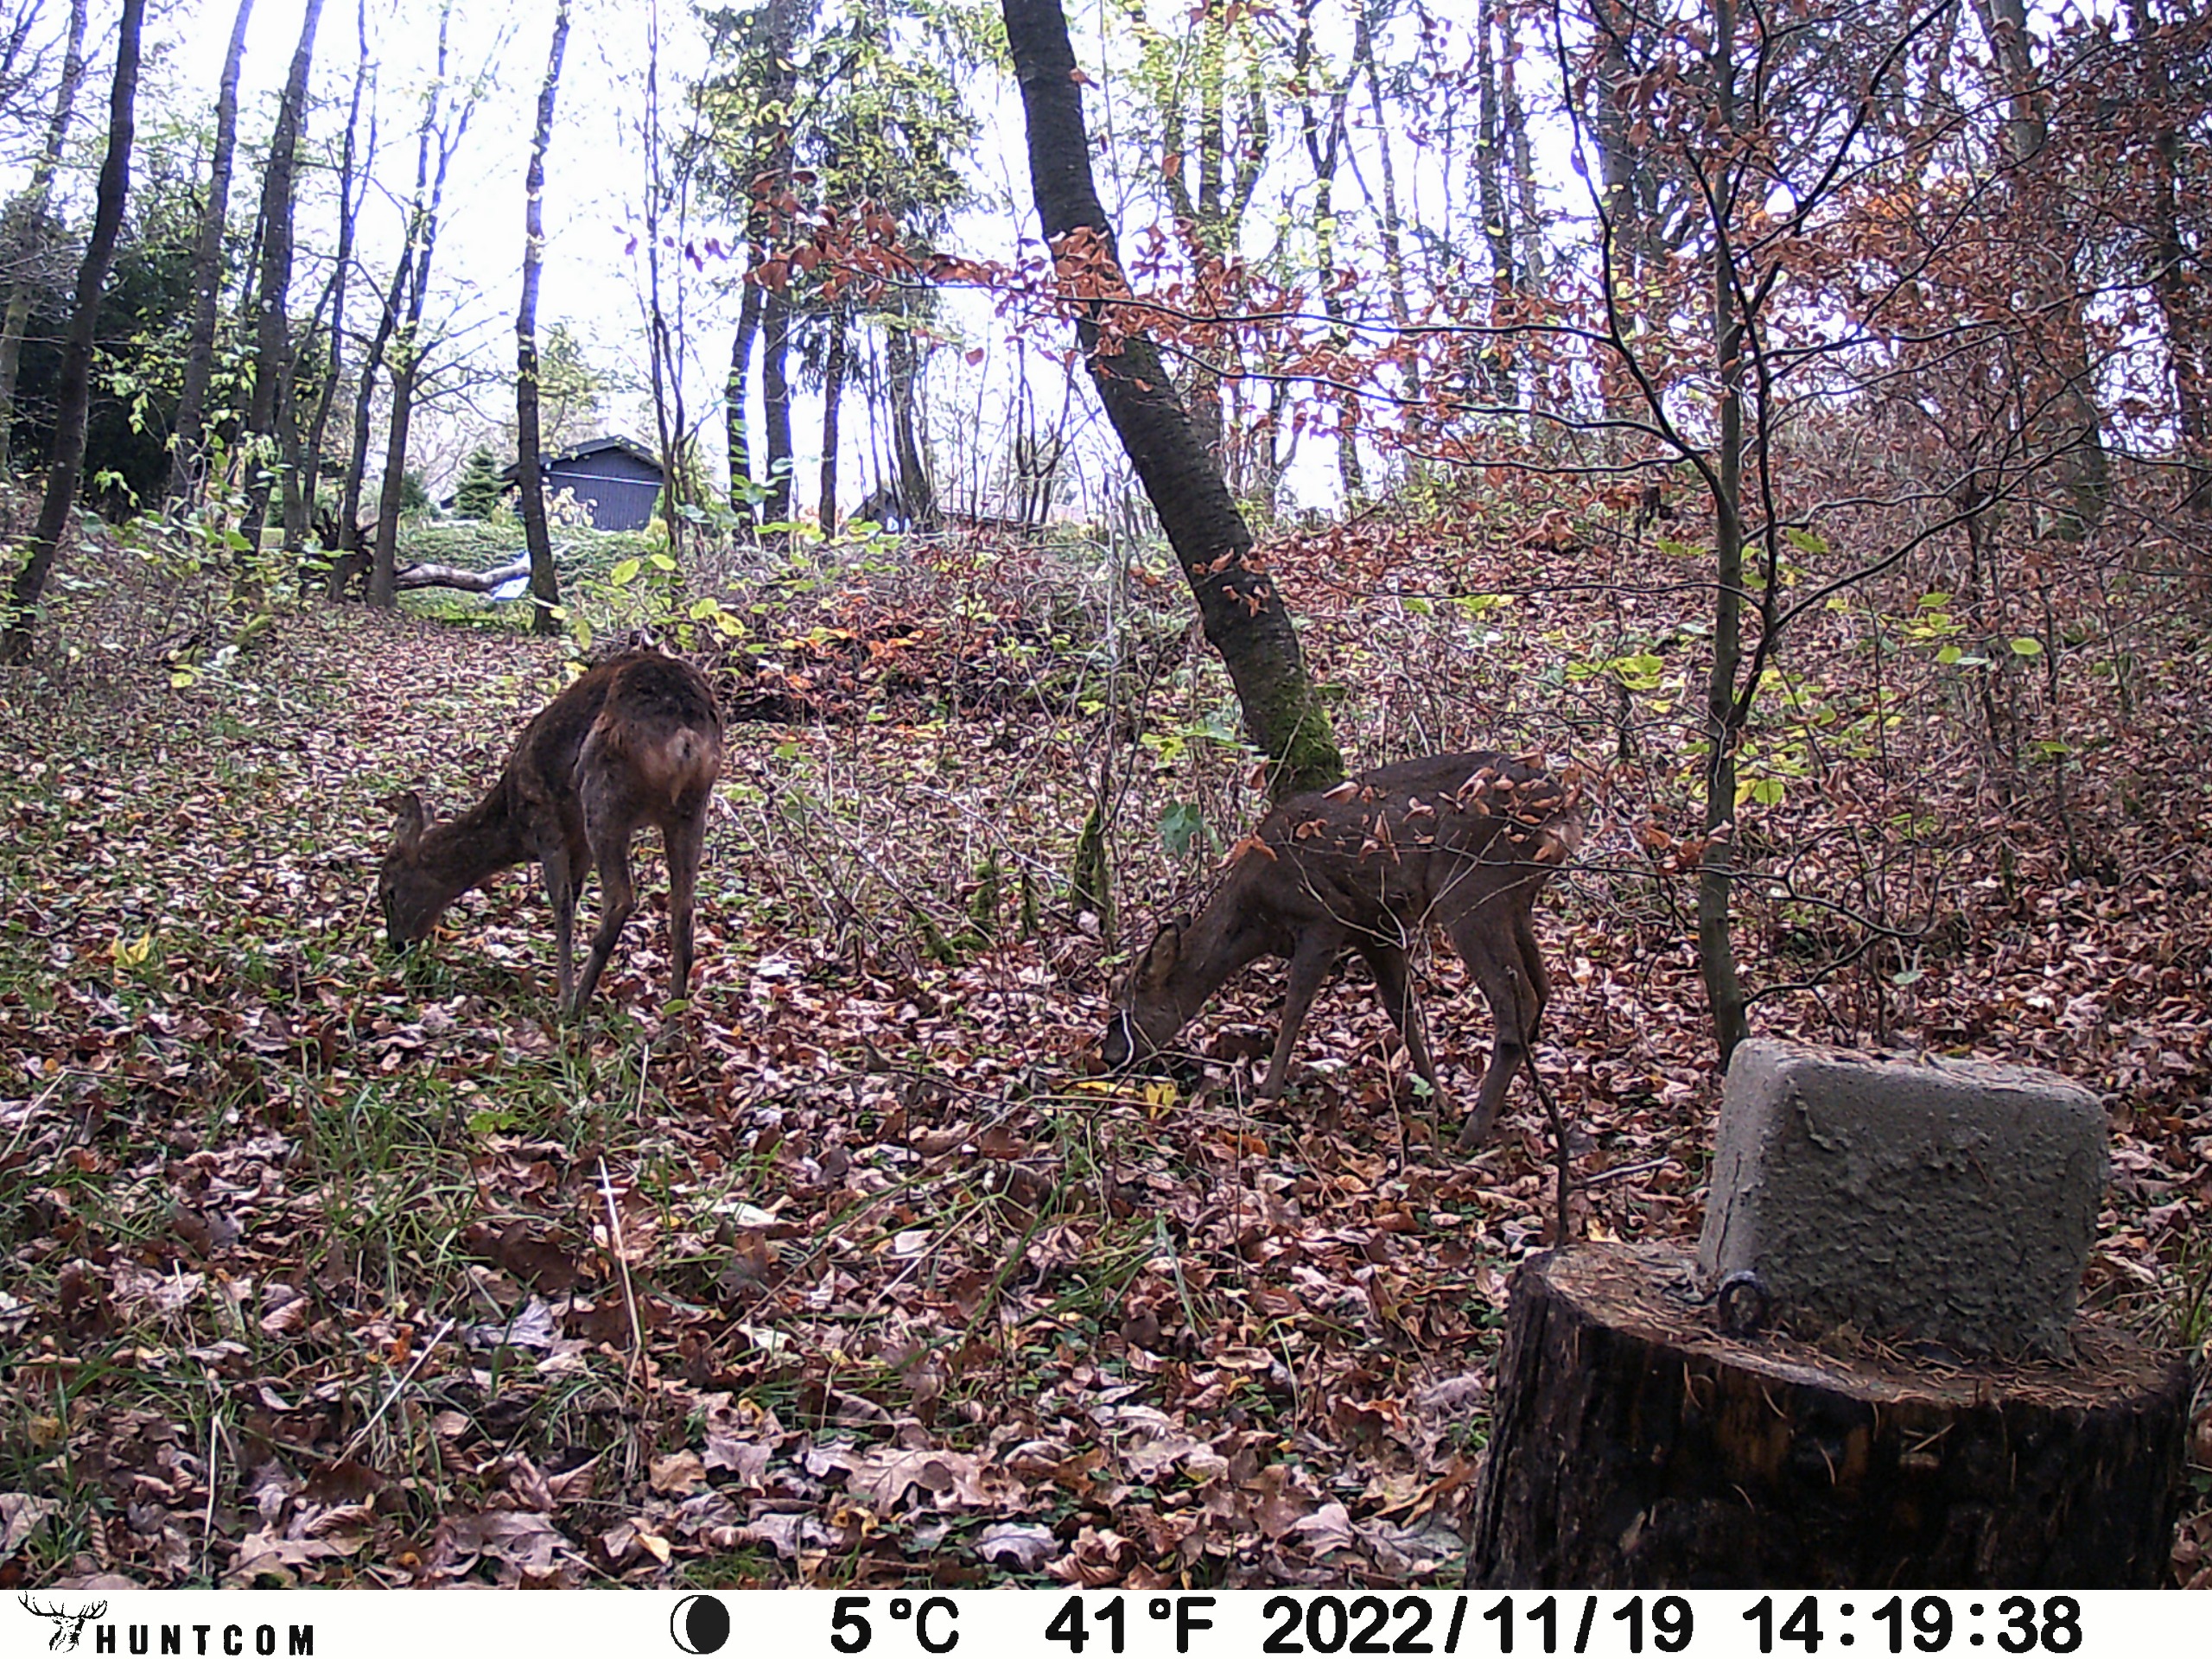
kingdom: Animalia
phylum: Chordata
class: Mammalia
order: Artiodactyla
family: Cervidae
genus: Capreolus
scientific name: Capreolus capreolus
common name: Rådyr
